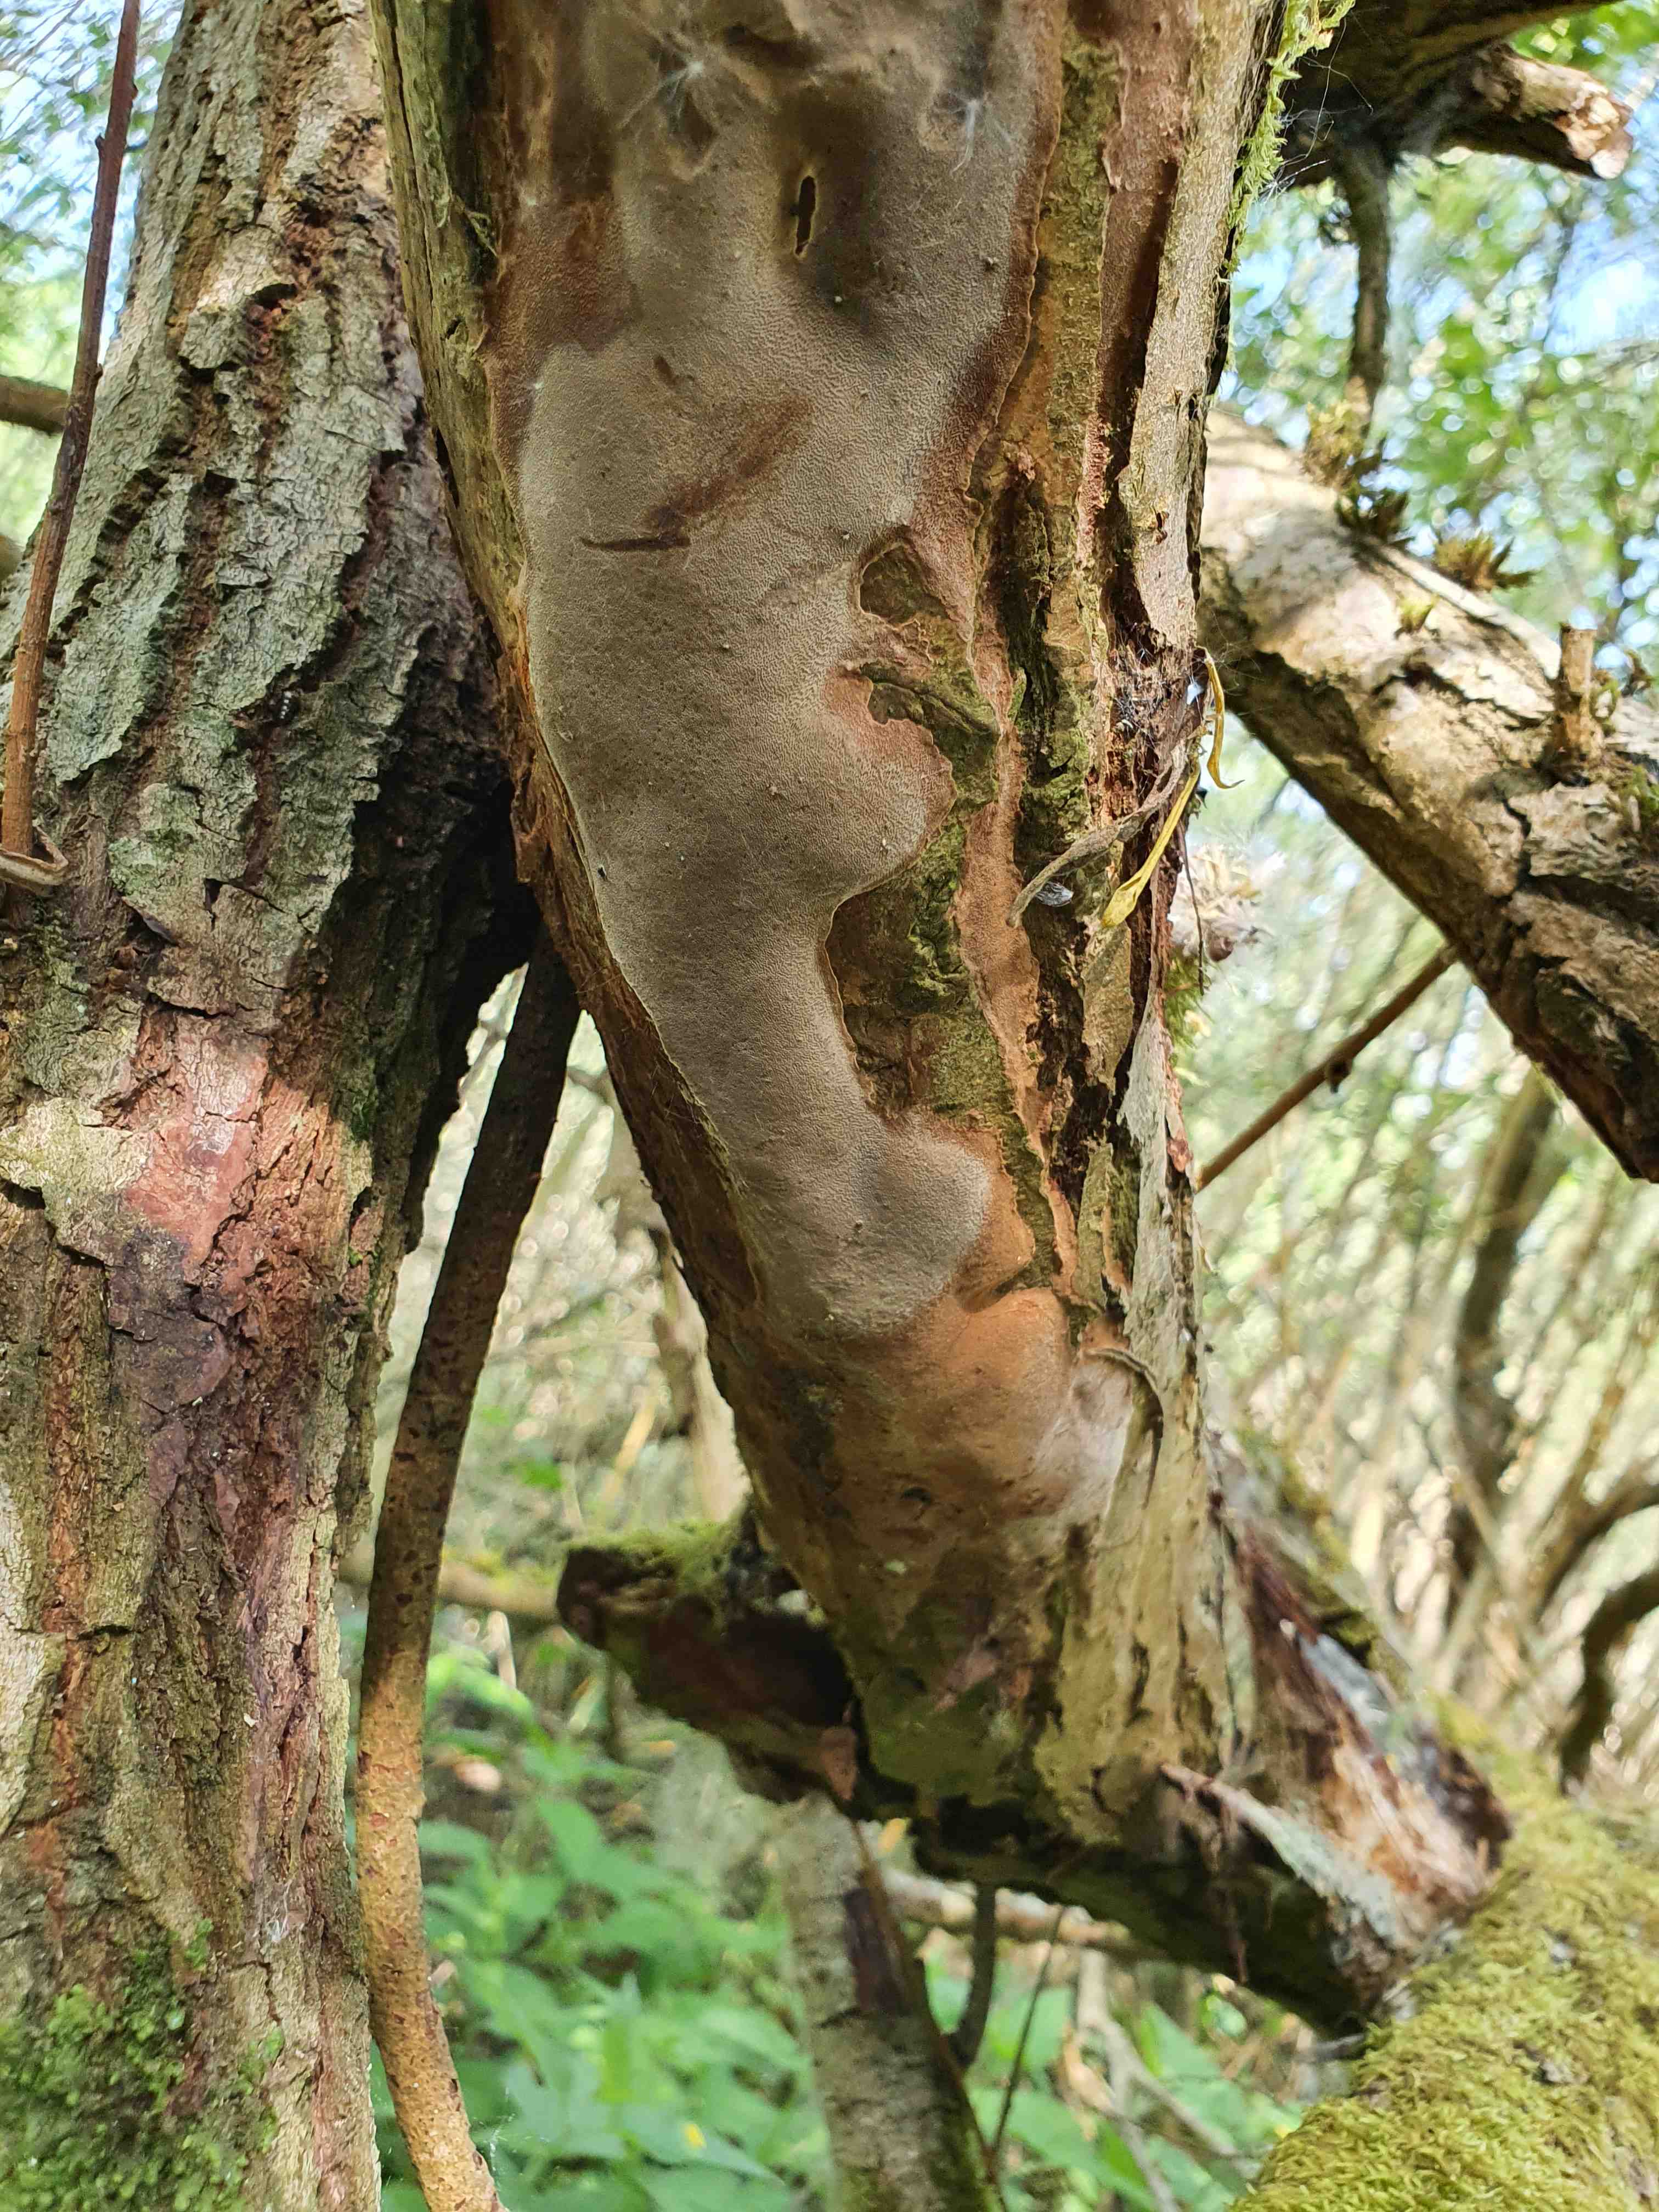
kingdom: Fungi
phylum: Basidiomycota
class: Agaricomycetes
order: Hymenochaetales
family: Hymenochaetaceae
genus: Fomitiporia
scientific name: Fomitiporia punctata
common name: pude-ildporesvamp
